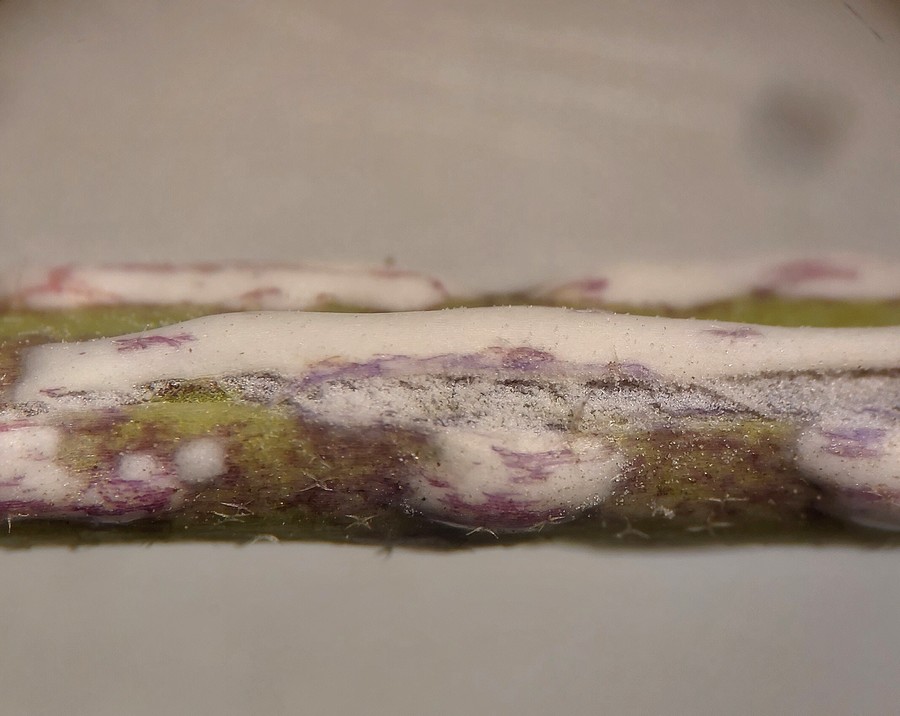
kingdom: Chromista
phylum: Oomycota
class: Peronosporea
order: Albuginales
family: Albuginaceae
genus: Albugo
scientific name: Albugo candida
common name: Crucifer white blister
